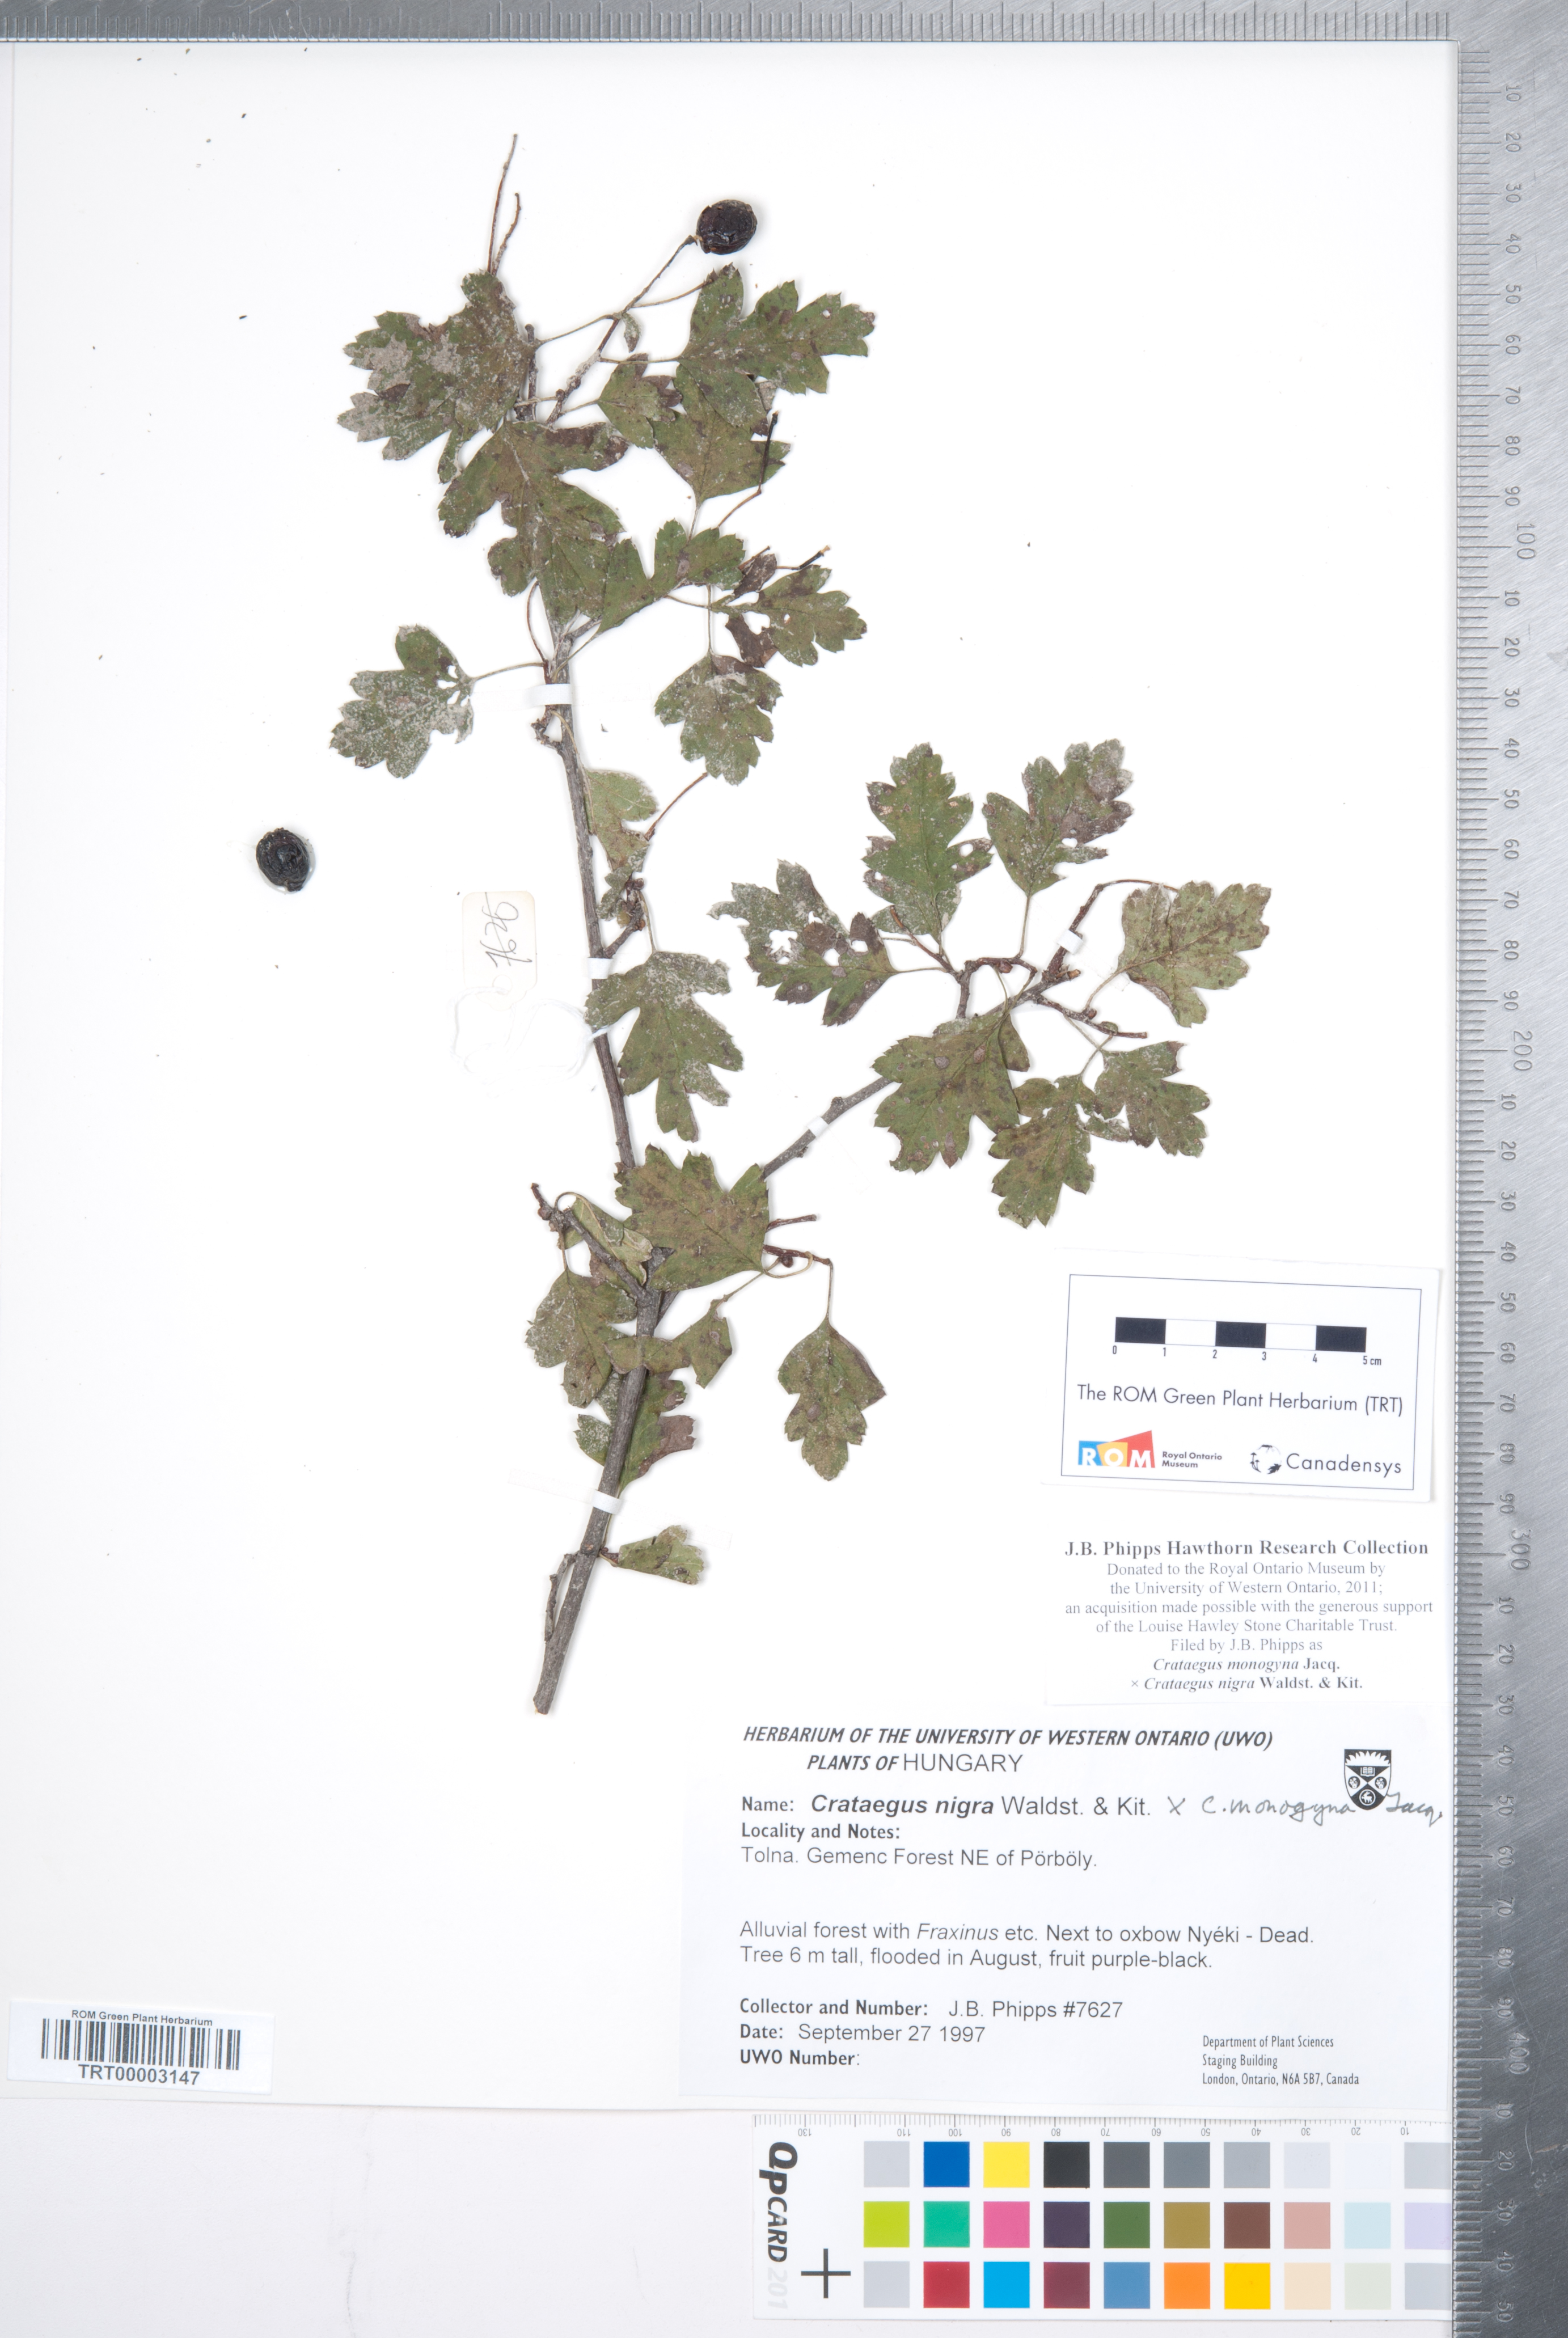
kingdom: Plantae
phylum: Tracheophyta
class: Magnoliopsida
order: Rosales
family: Rosaceae
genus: Crataegus
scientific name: Crataegus
